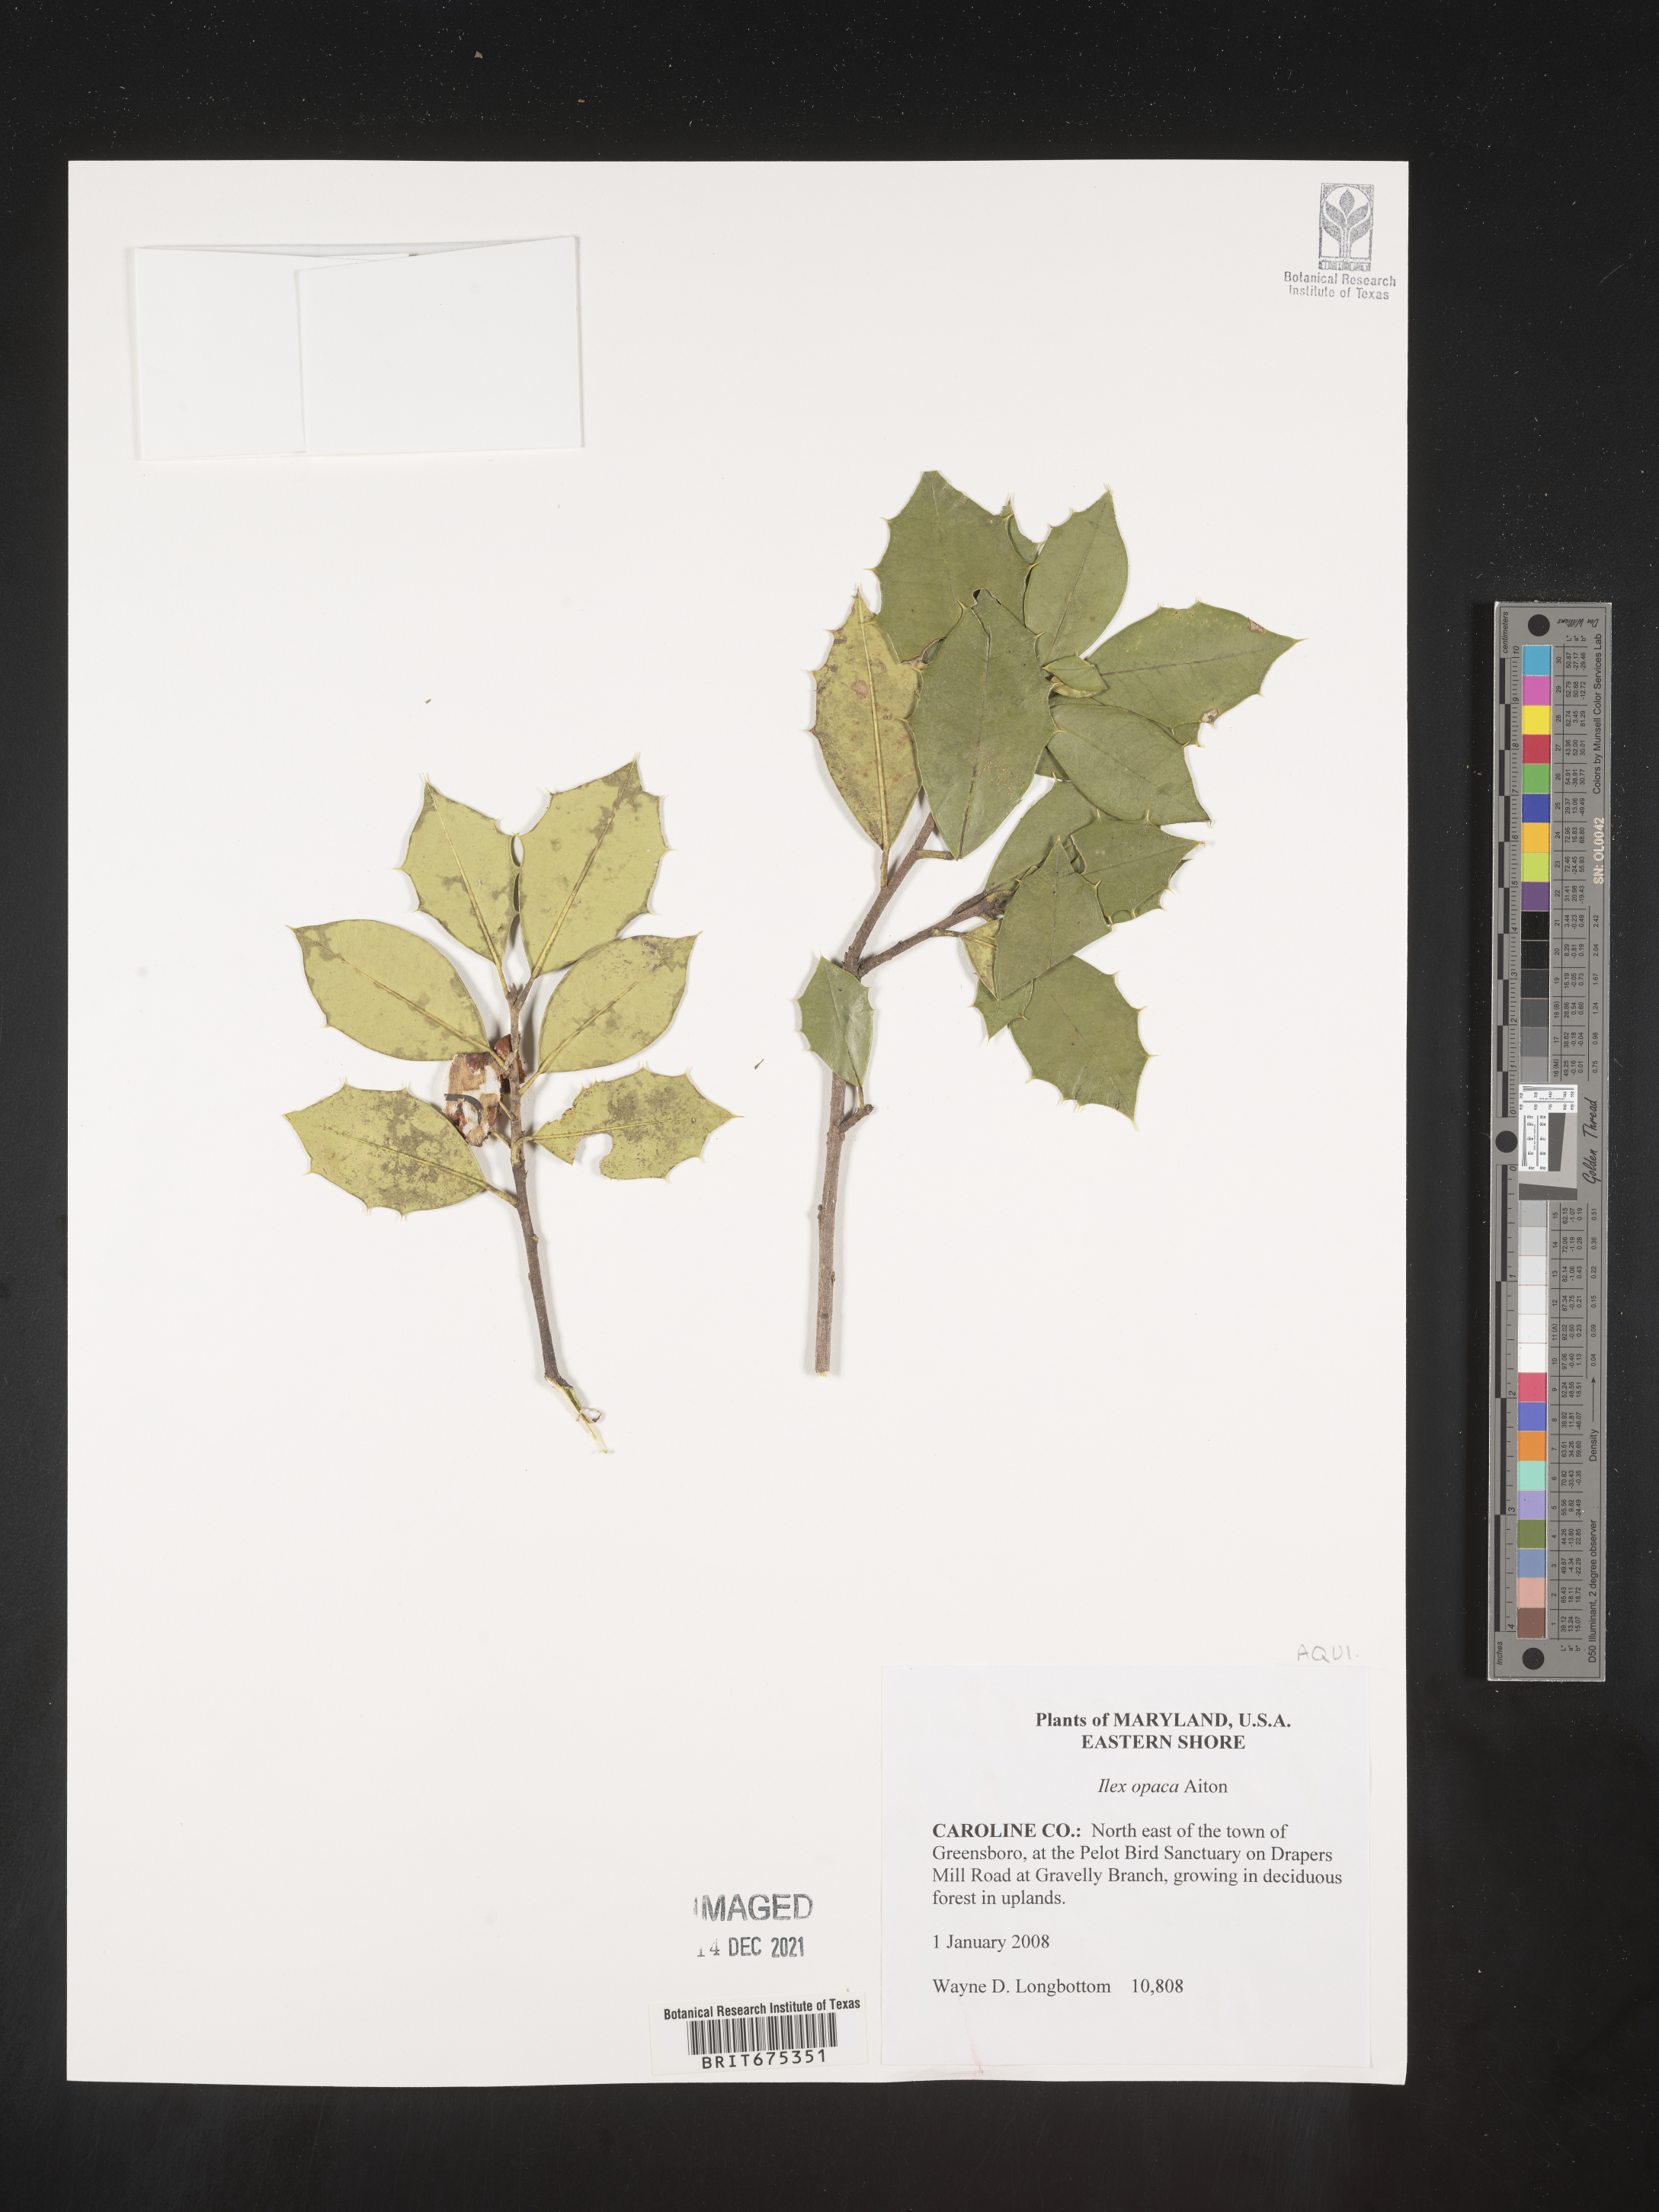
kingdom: Plantae
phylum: Tracheophyta
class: Magnoliopsida
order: Aquifoliales
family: Aquifoliaceae
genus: Ilex
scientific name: Ilex opaca
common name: American holly
